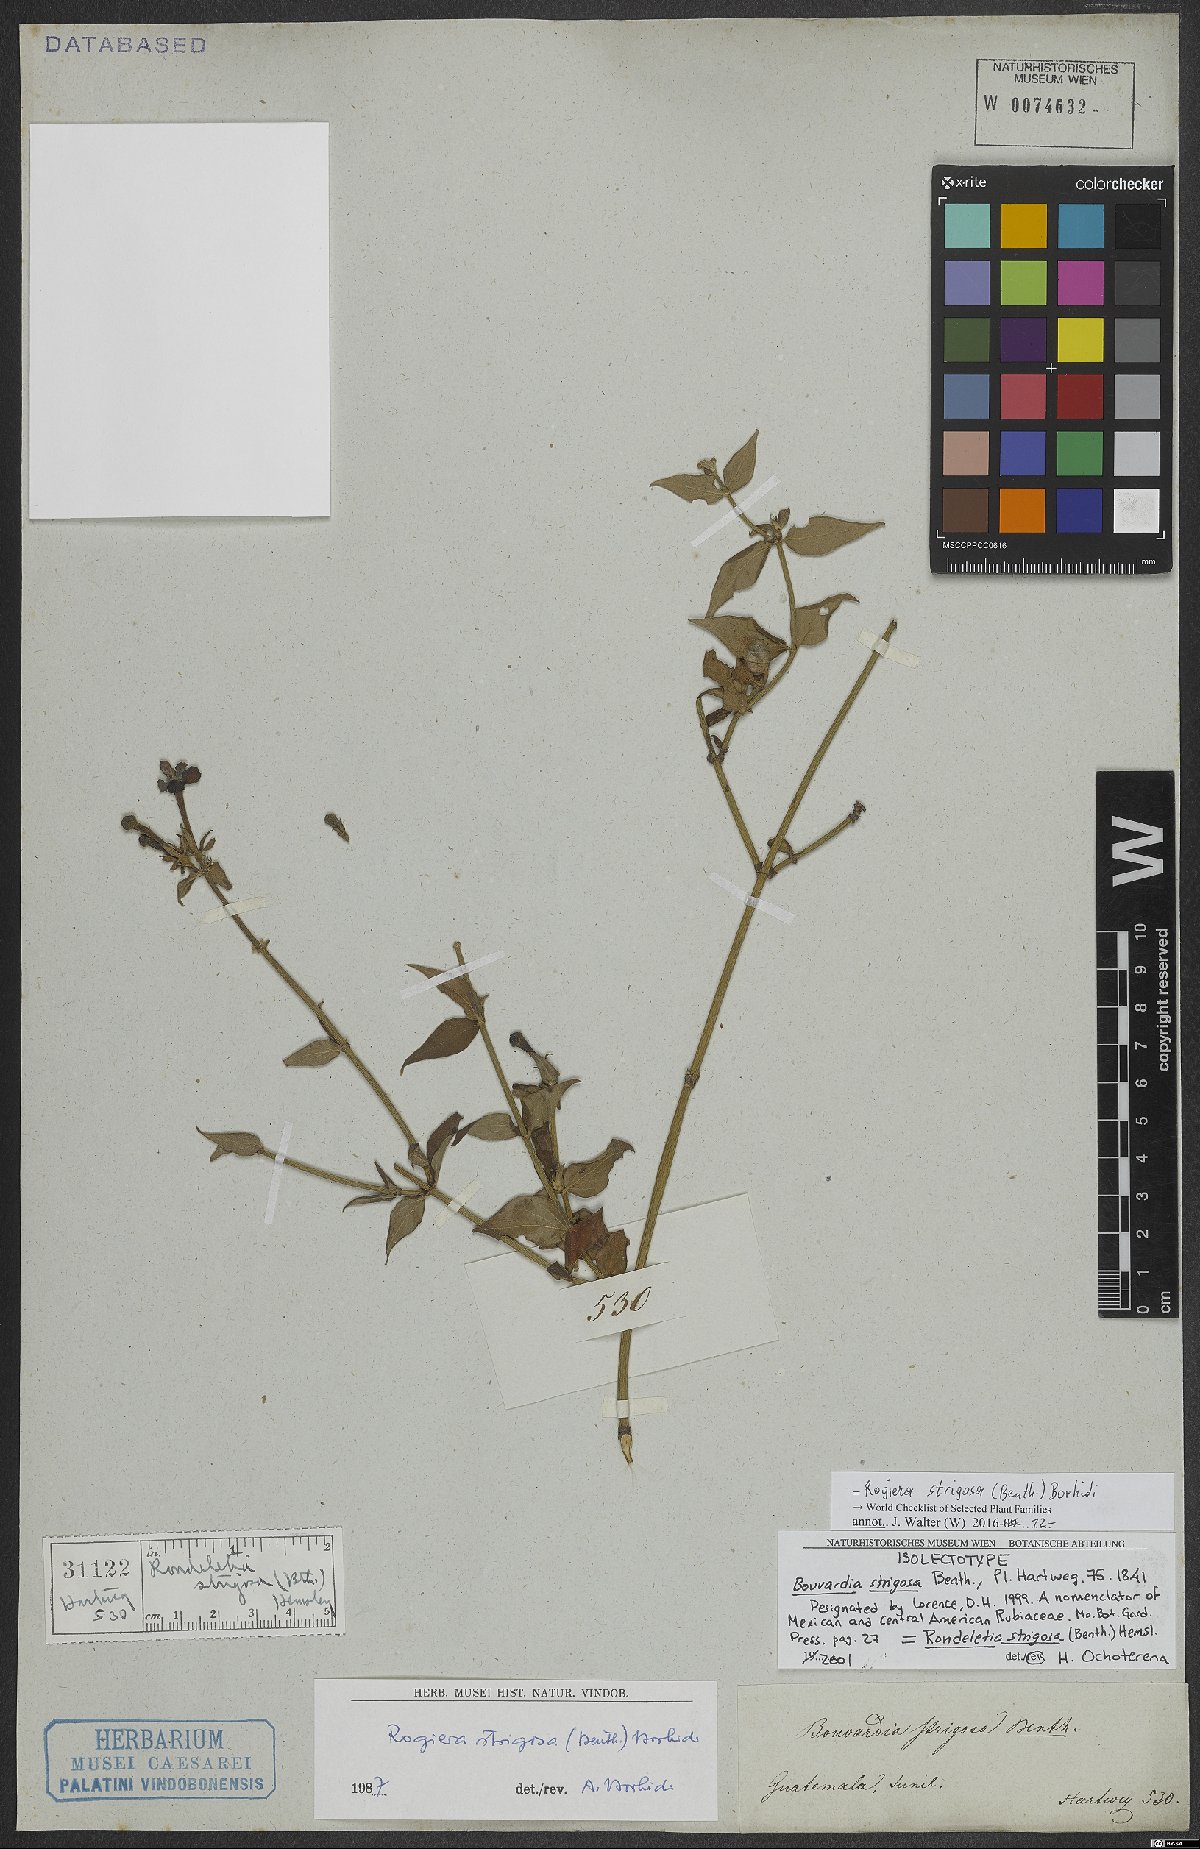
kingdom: Plantae
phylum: Tracheophyta
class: Magnoliopsida
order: Gentianales
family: Rubiaceae
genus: Rovaeanthus
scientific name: Rovaeanthus strigosus
